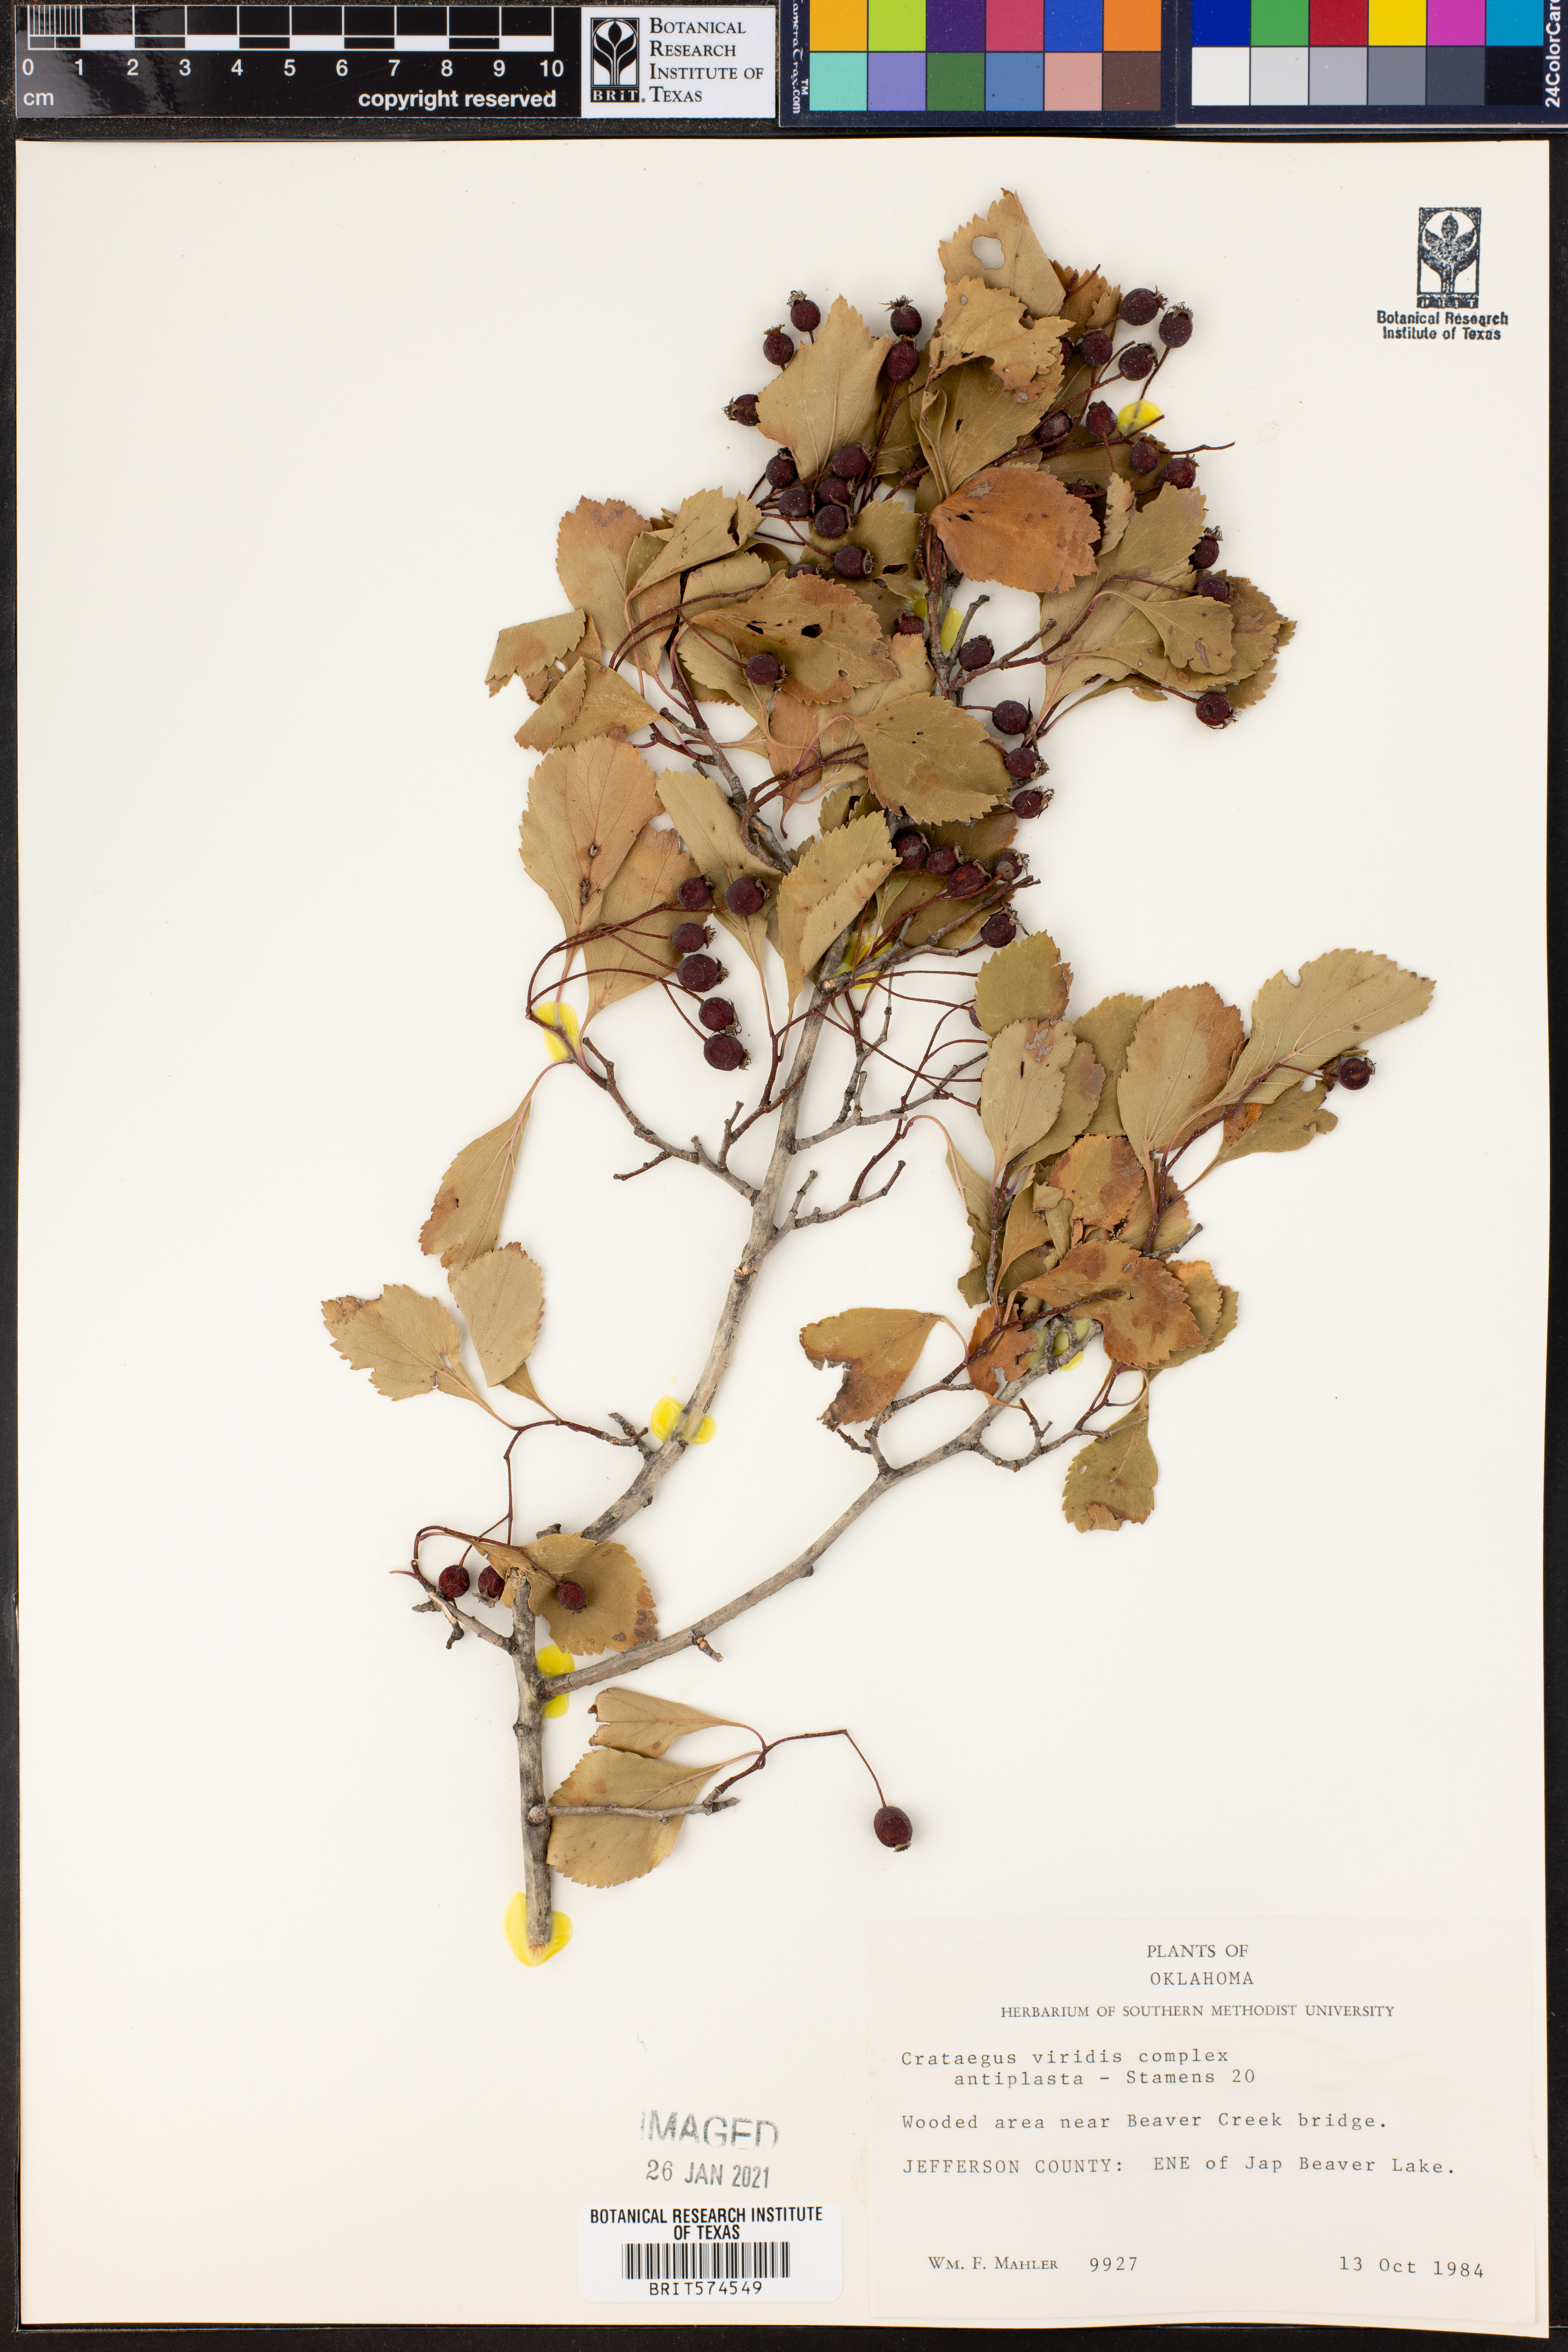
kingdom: Plantae
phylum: Tracheophyta
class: Magnoliopsida
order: Rosales
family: Rosaceae
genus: Crataegus
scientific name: Crataegus viridis
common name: Southernthorn
